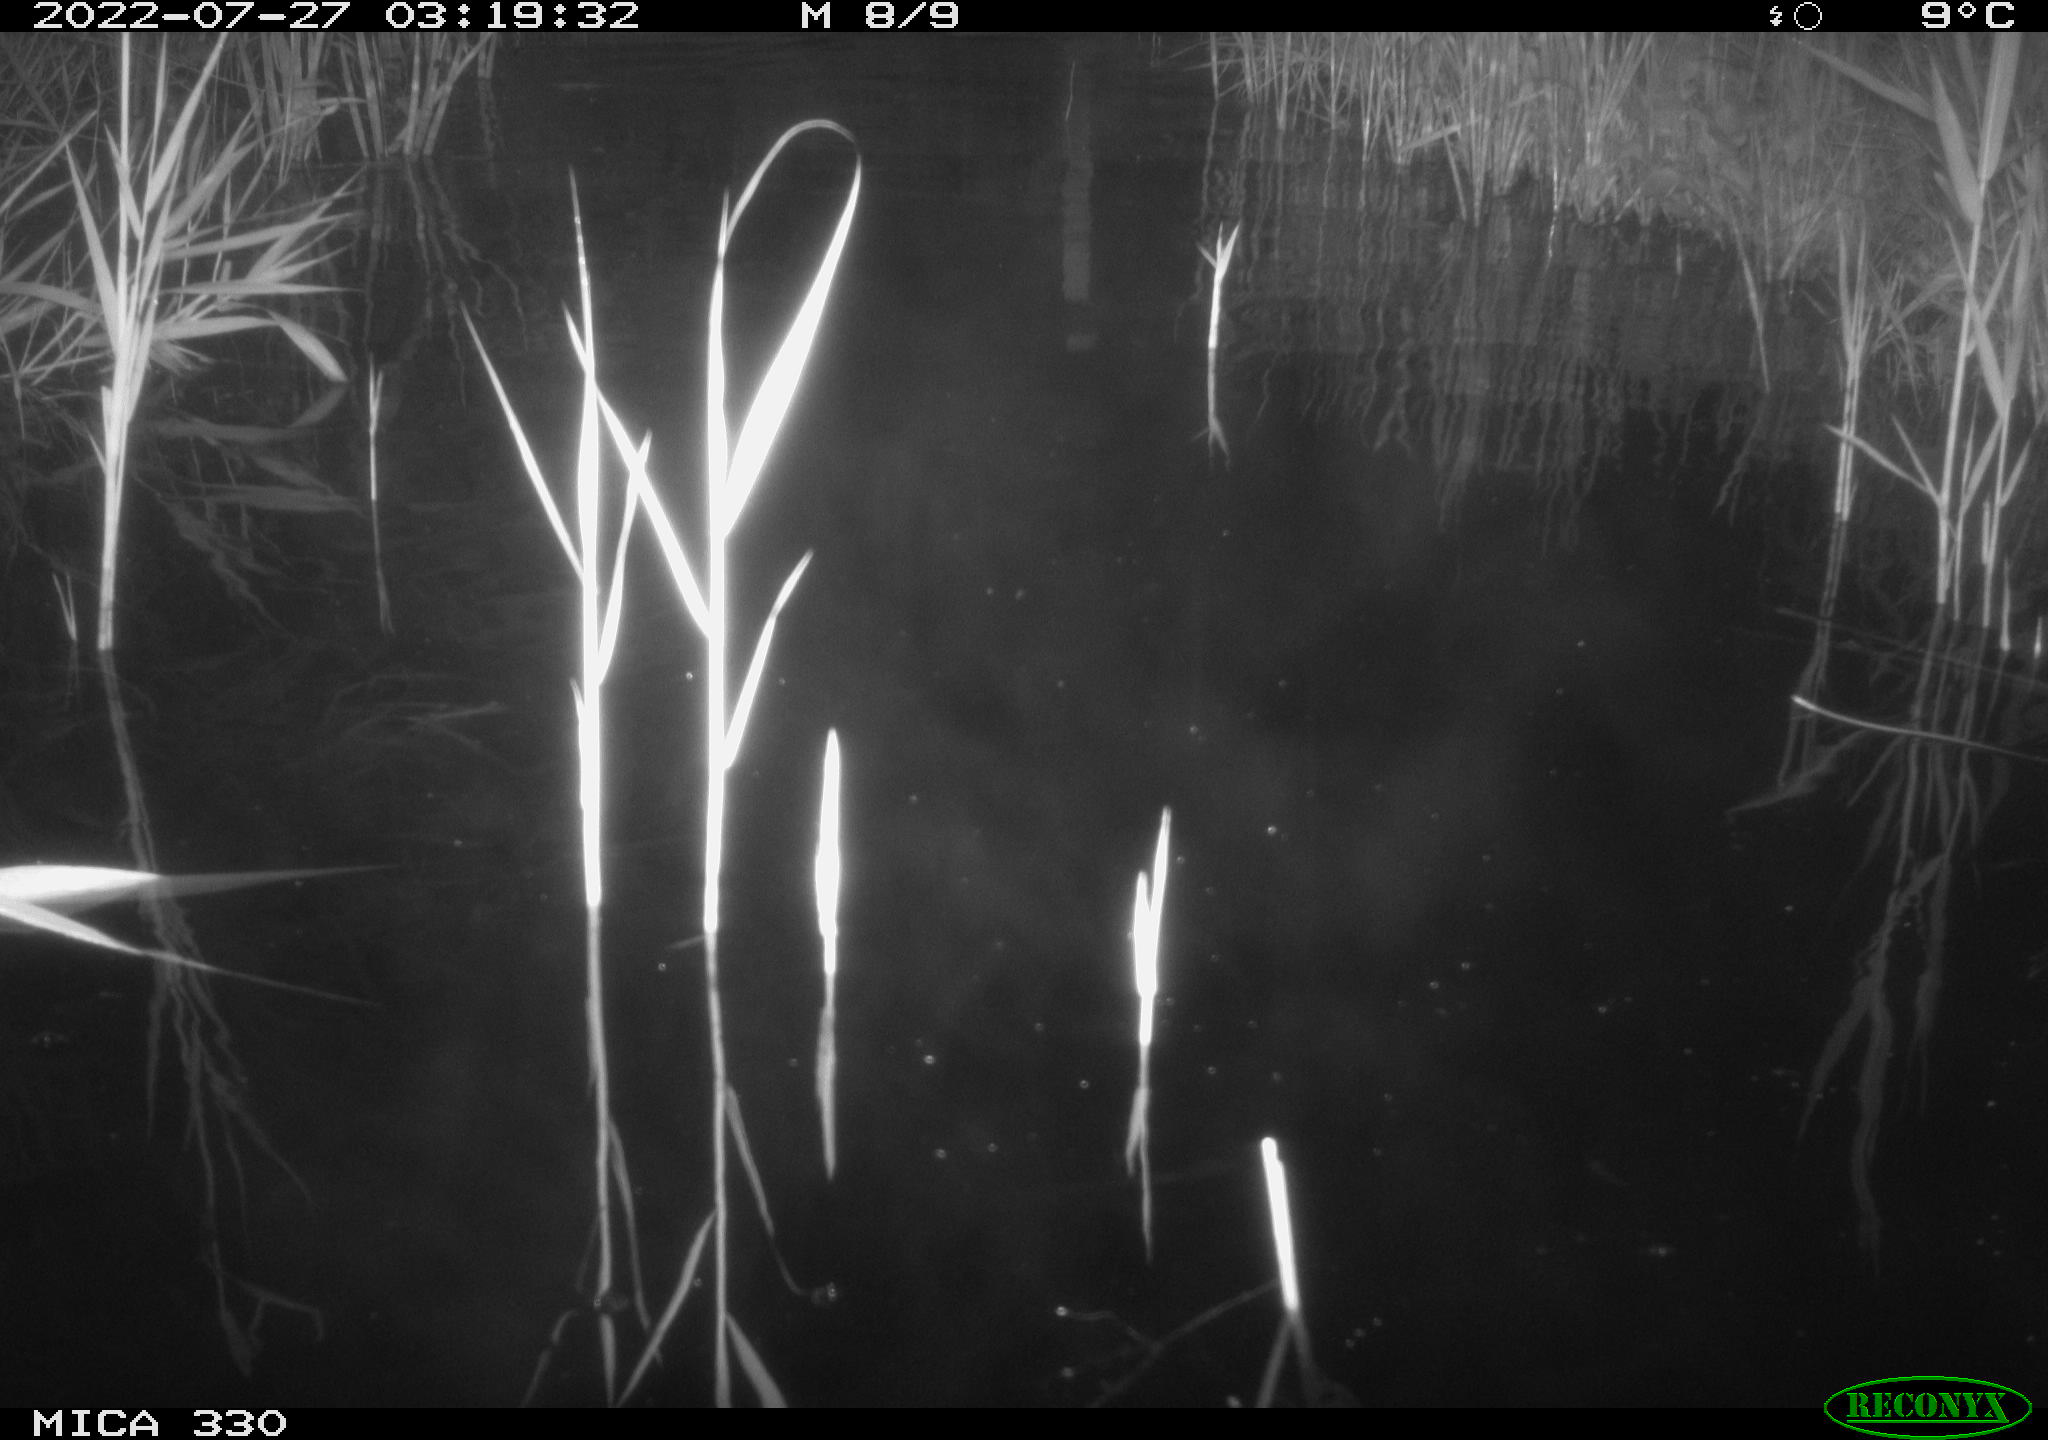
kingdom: Animalia
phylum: Chordata
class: Mammalia
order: Carnivora
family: Mustelidae
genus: Lutra
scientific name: Lutra lutra
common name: European otter
